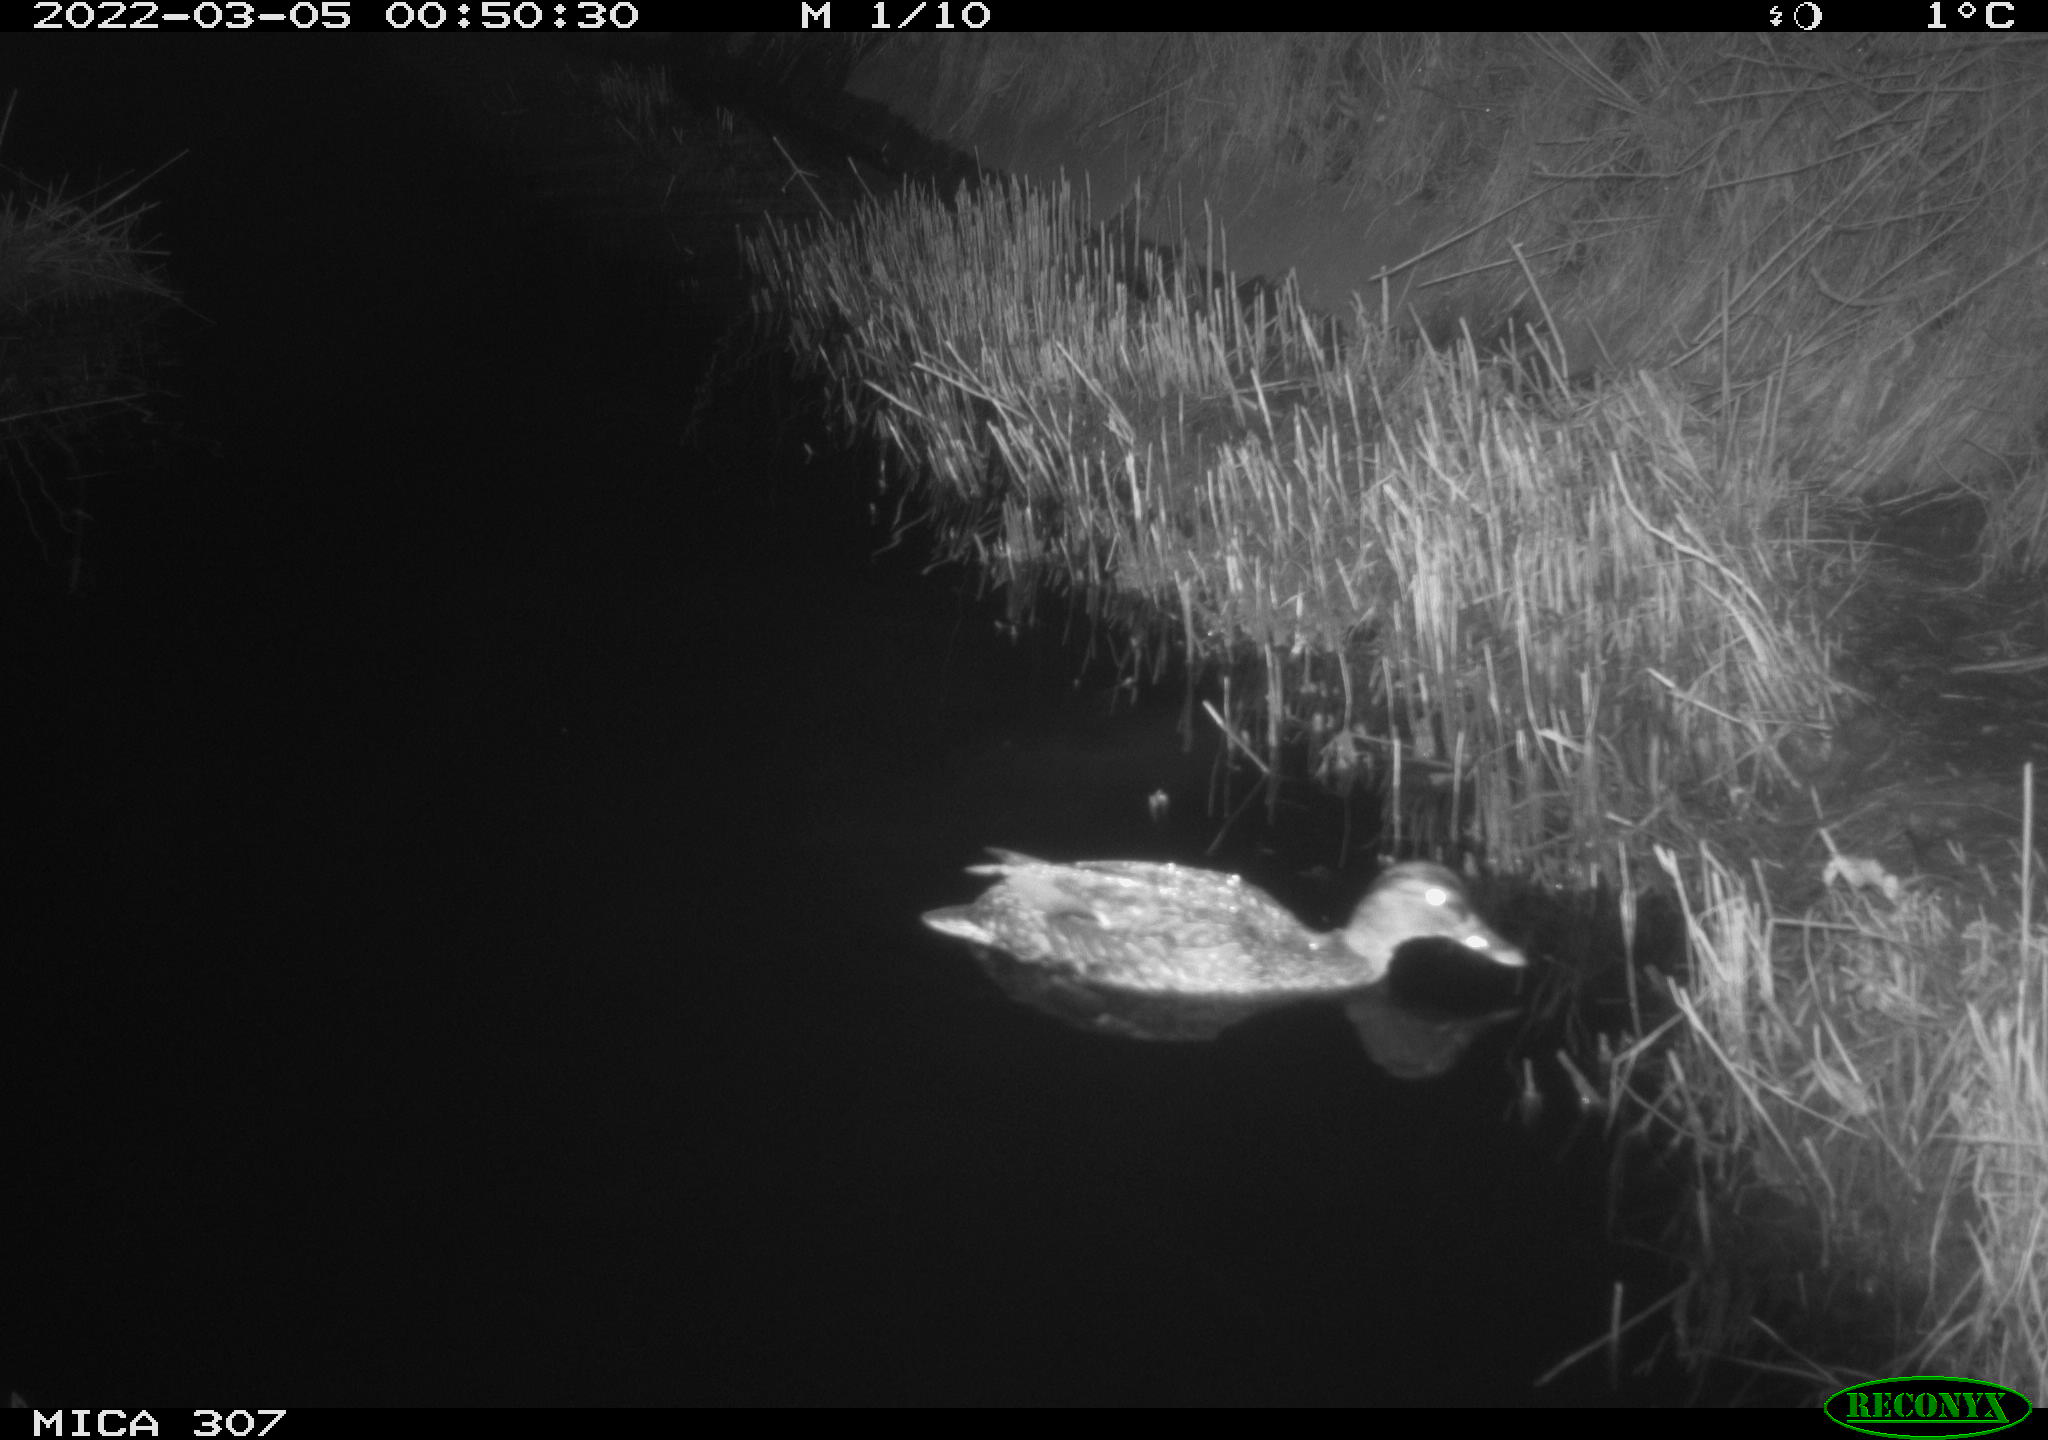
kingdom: Animalia
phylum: Chordata
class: Aves
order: Anseriformes
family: Anatidae
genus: Anas
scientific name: Anas platyrhynchos
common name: Mallard
